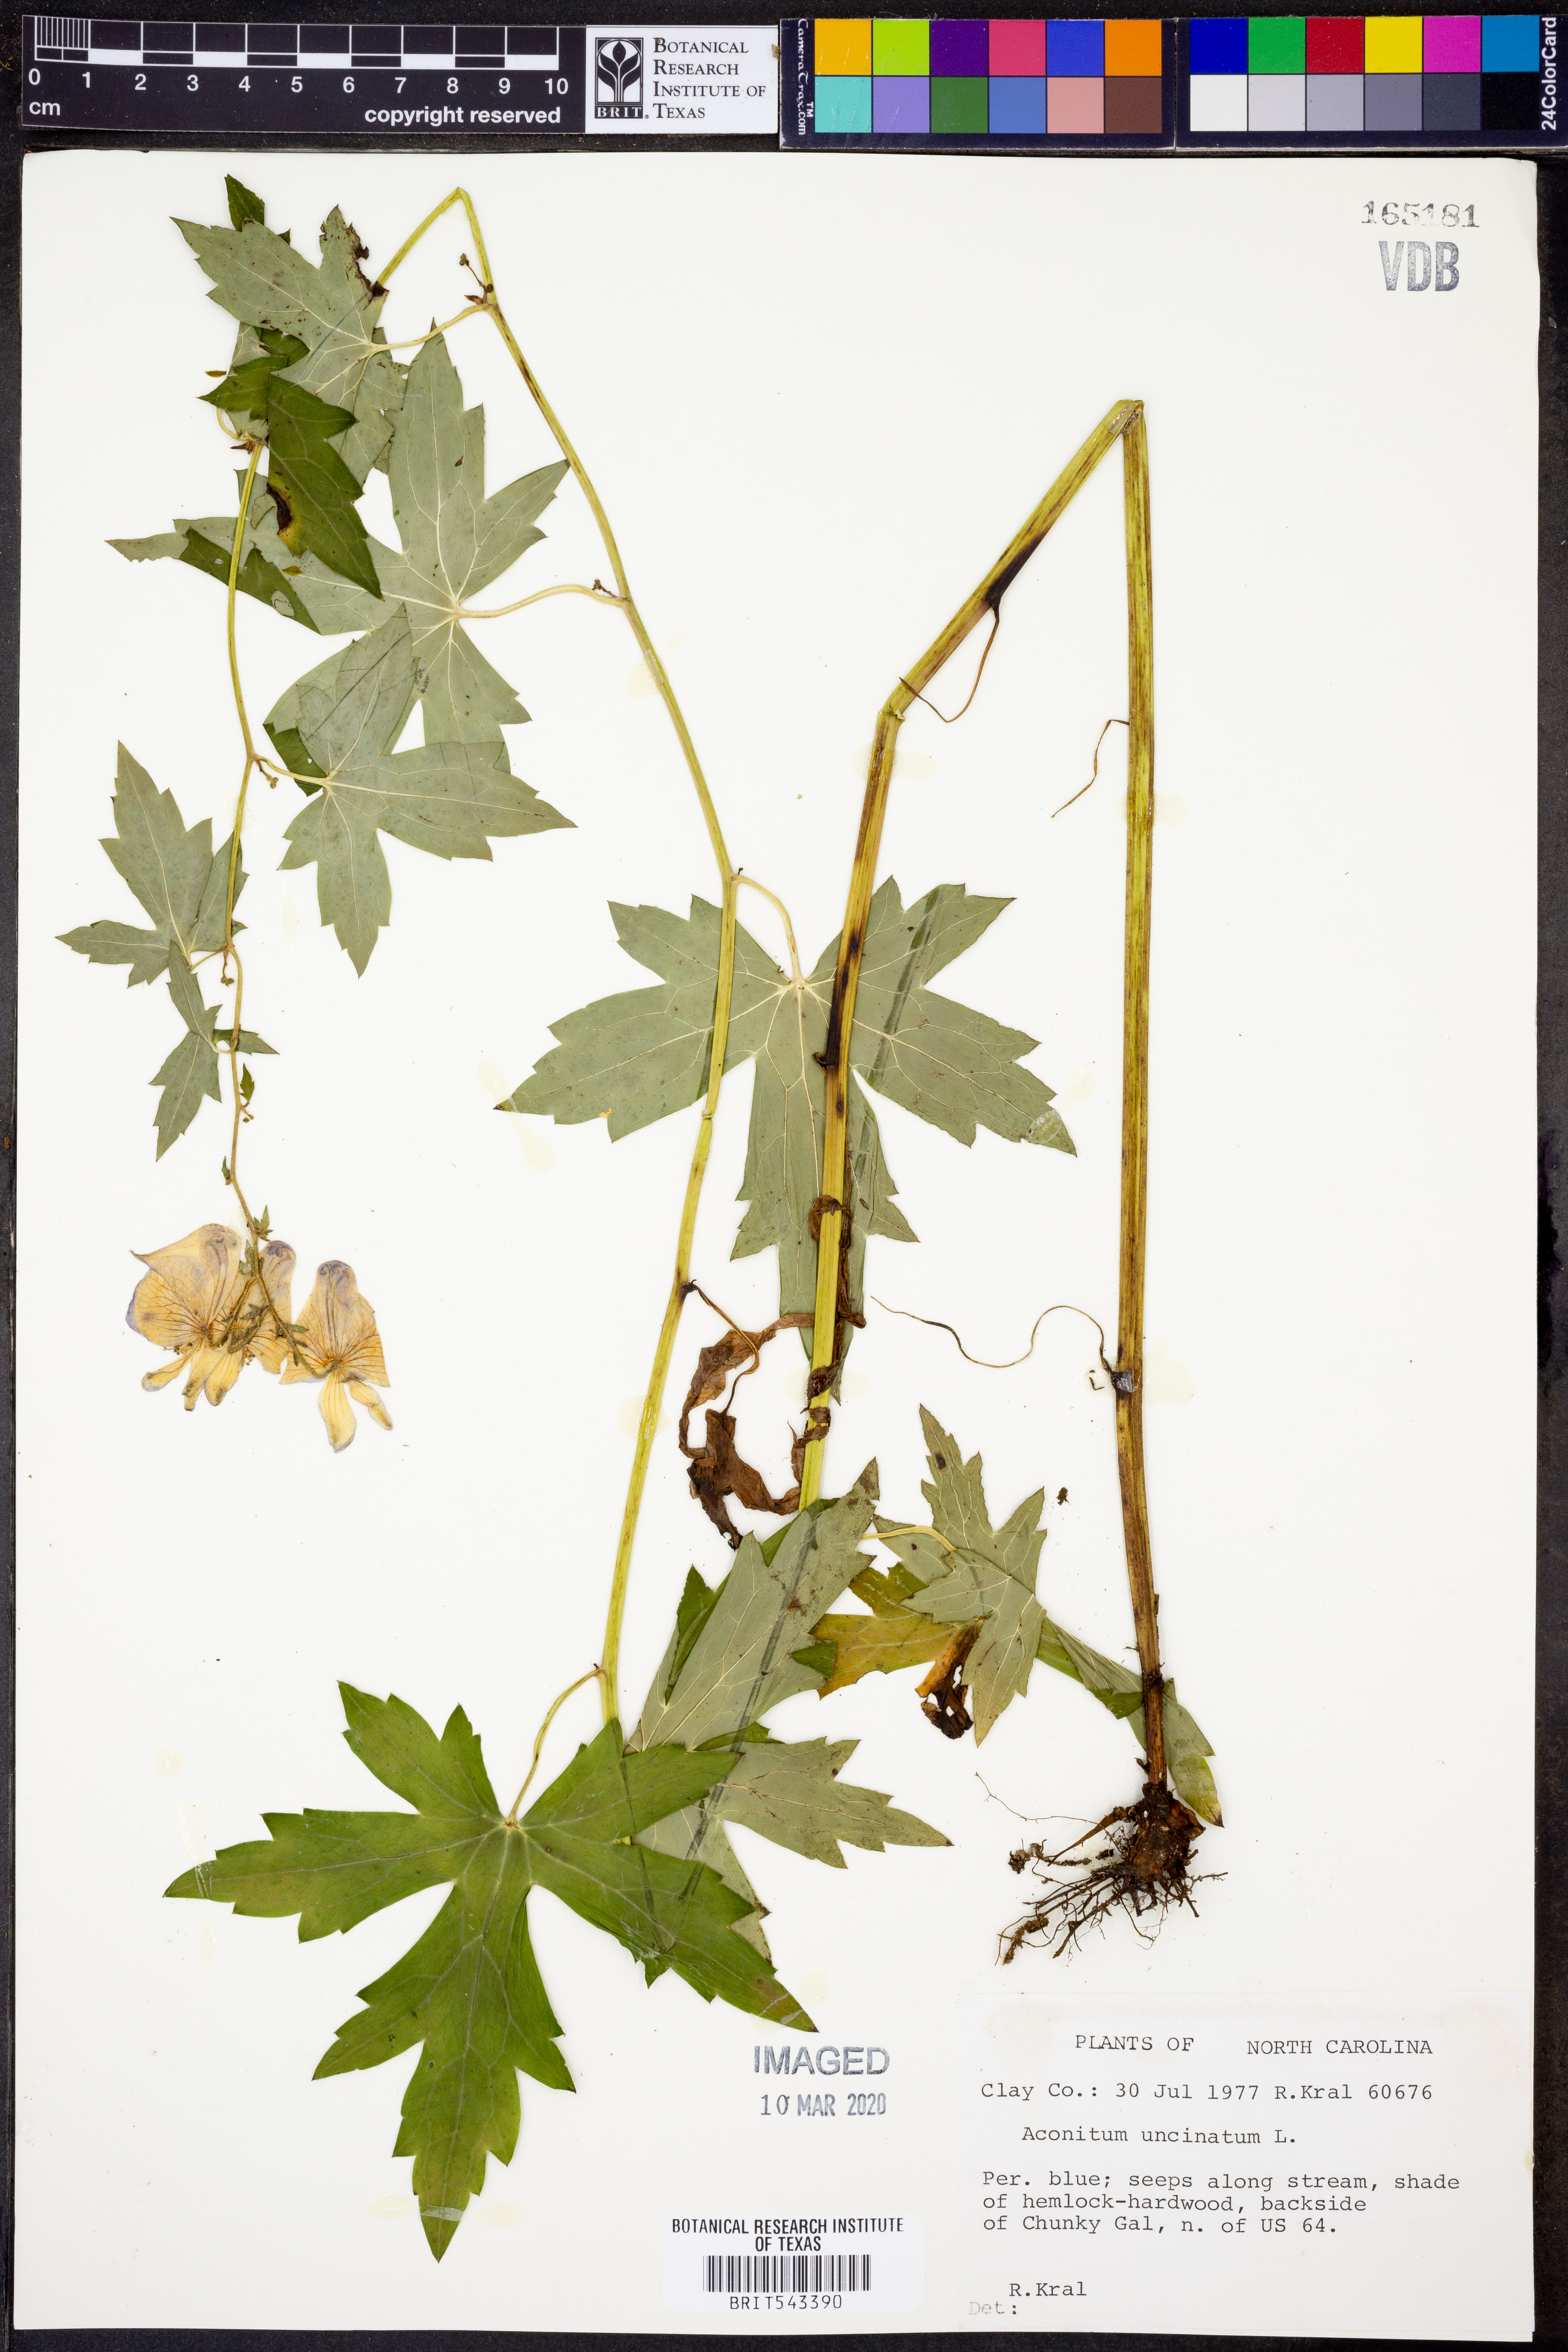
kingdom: Plantae
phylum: Tracheophyta
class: Magnoliopsida
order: Ranunculales
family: Ranunculaceae
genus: Aconitum
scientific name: Aconitum uncinatum
